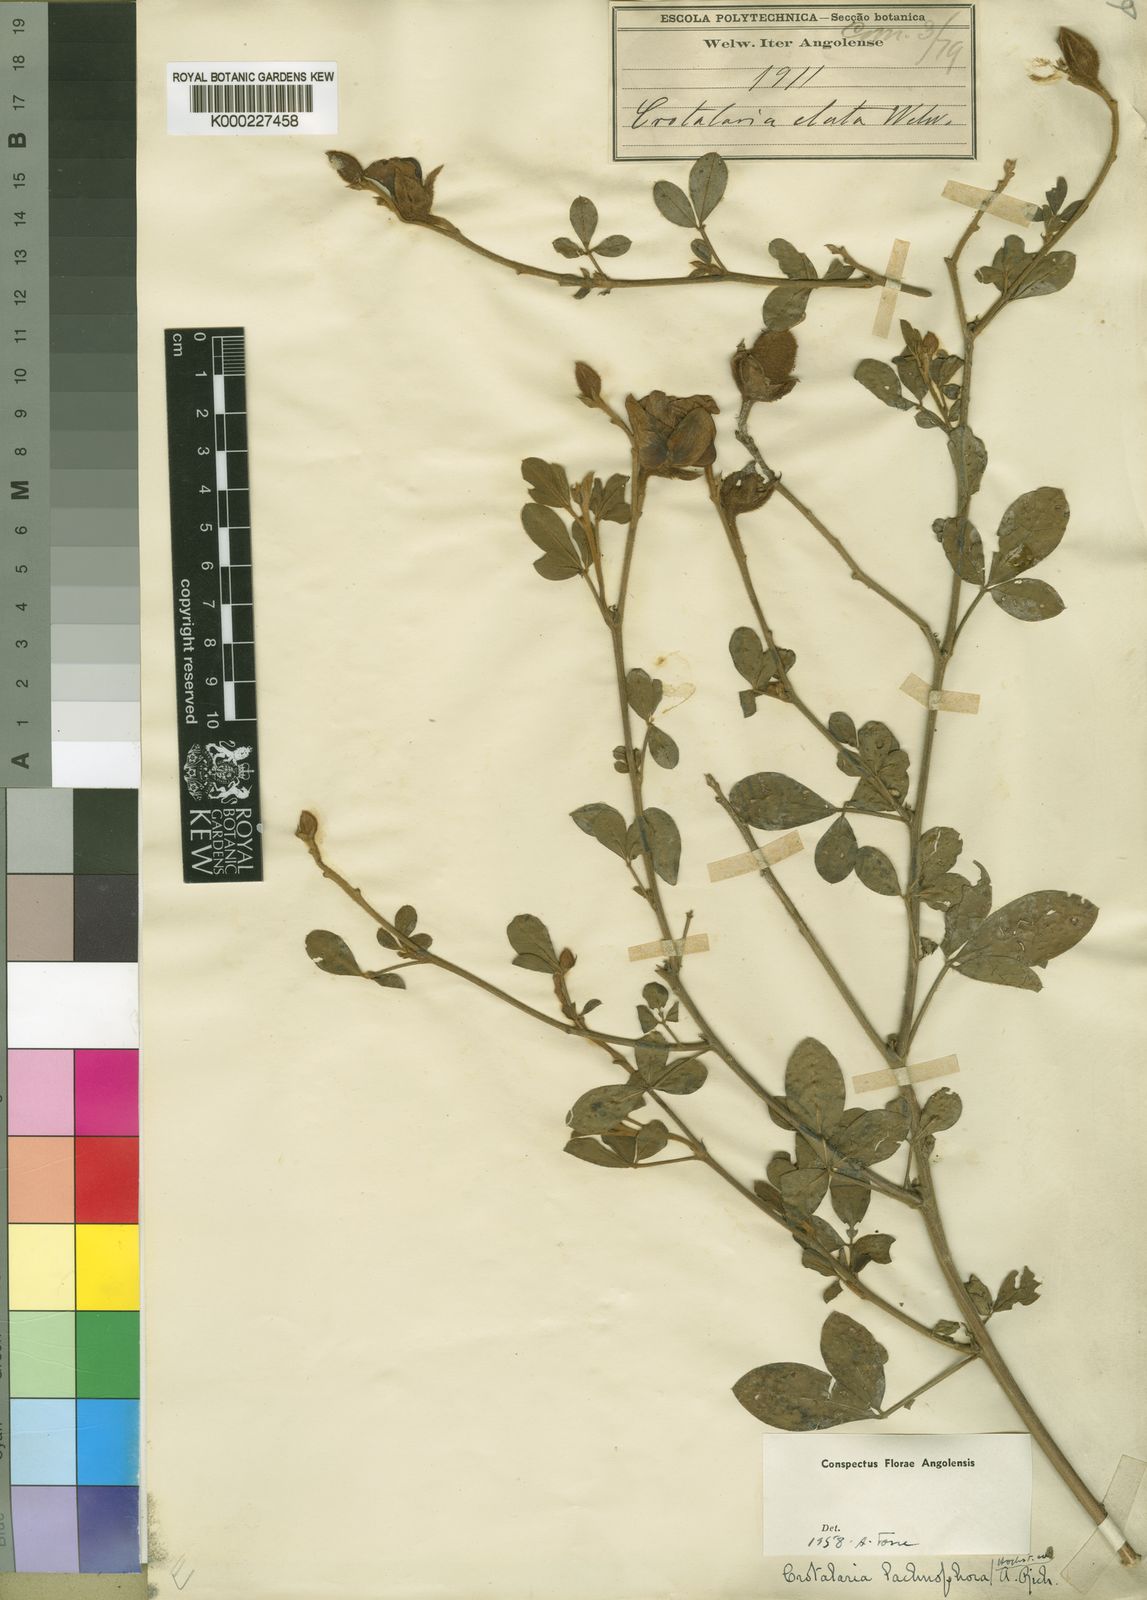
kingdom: Plantae
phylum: Tracheophyta
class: Magnoliopsida
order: Fabales
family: Fabaceae
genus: Crotalaria
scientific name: Crotalaria lachnophora
